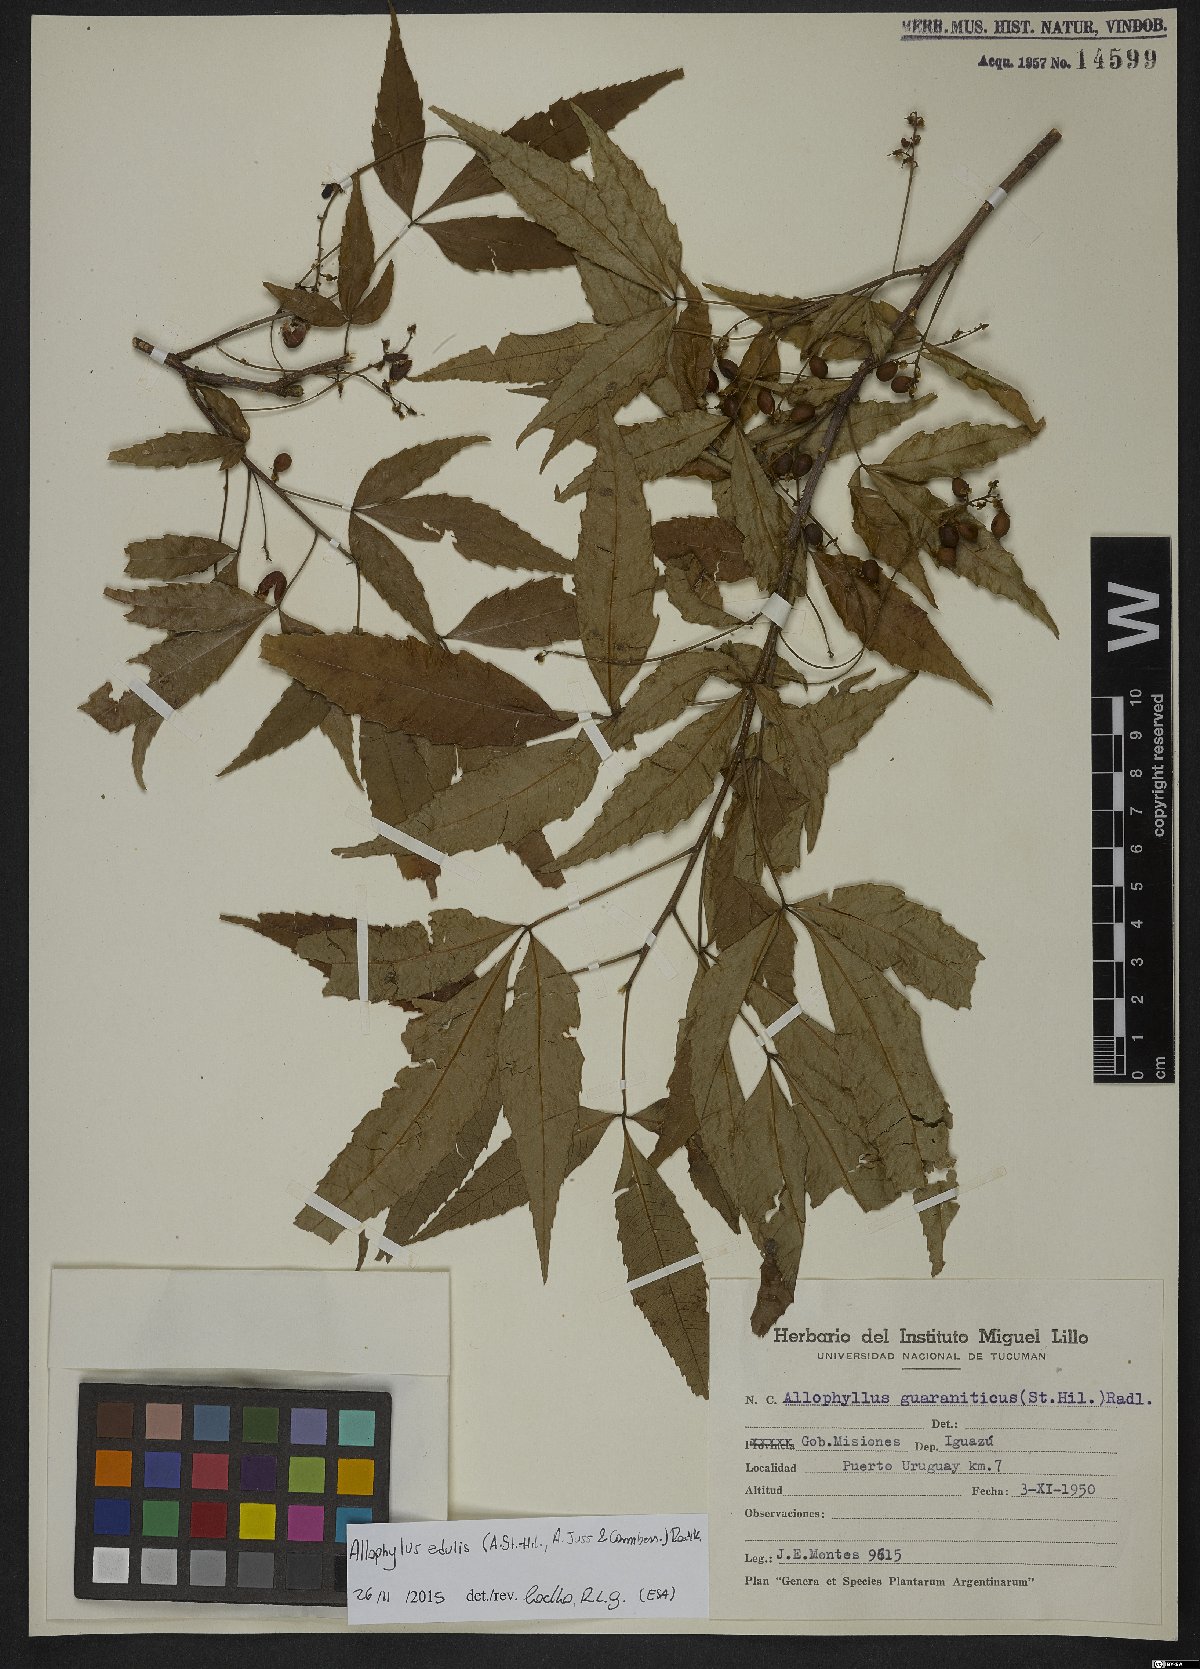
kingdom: Plantae
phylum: Tracheophyta
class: Magnoliopsida
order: Sapindales
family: Sapindaceae
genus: Allophylus
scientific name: Allophylus edulis
